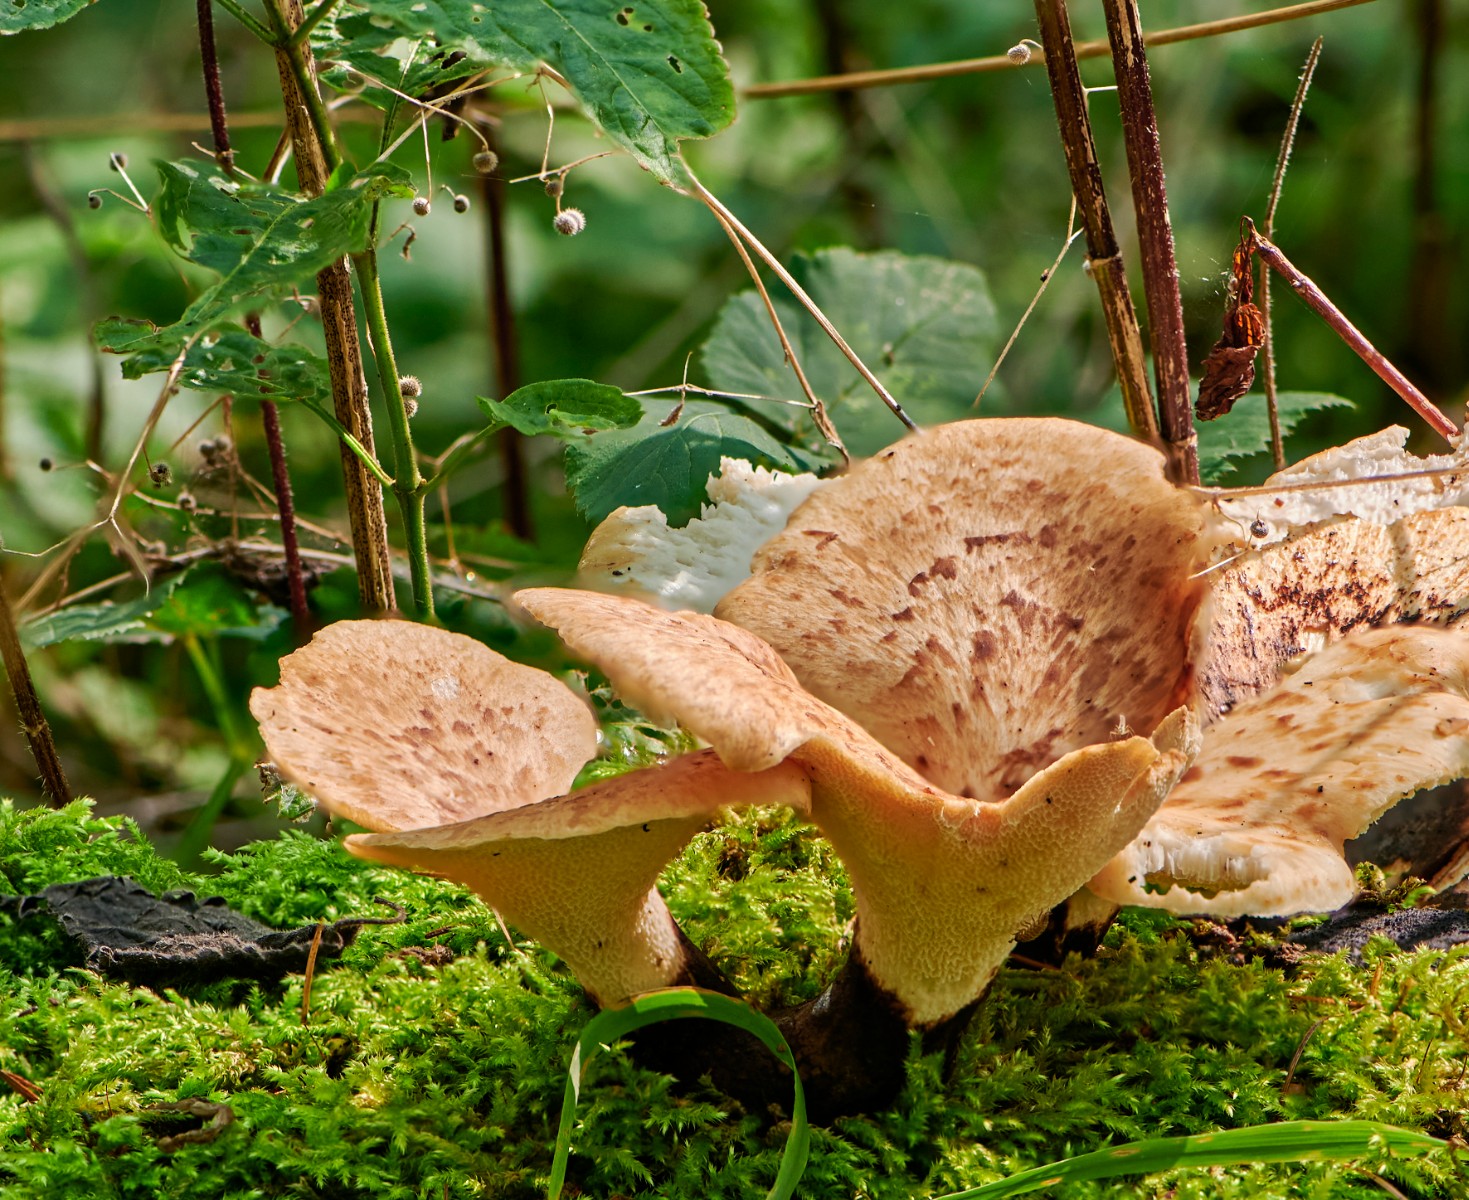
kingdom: Fungi
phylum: Basidiomycota
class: Agaricomycetes
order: Polyporales
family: Polyporaceae
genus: Cerioporus
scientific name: Cerioporus squamosus
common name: skællet stilkporesvamp
